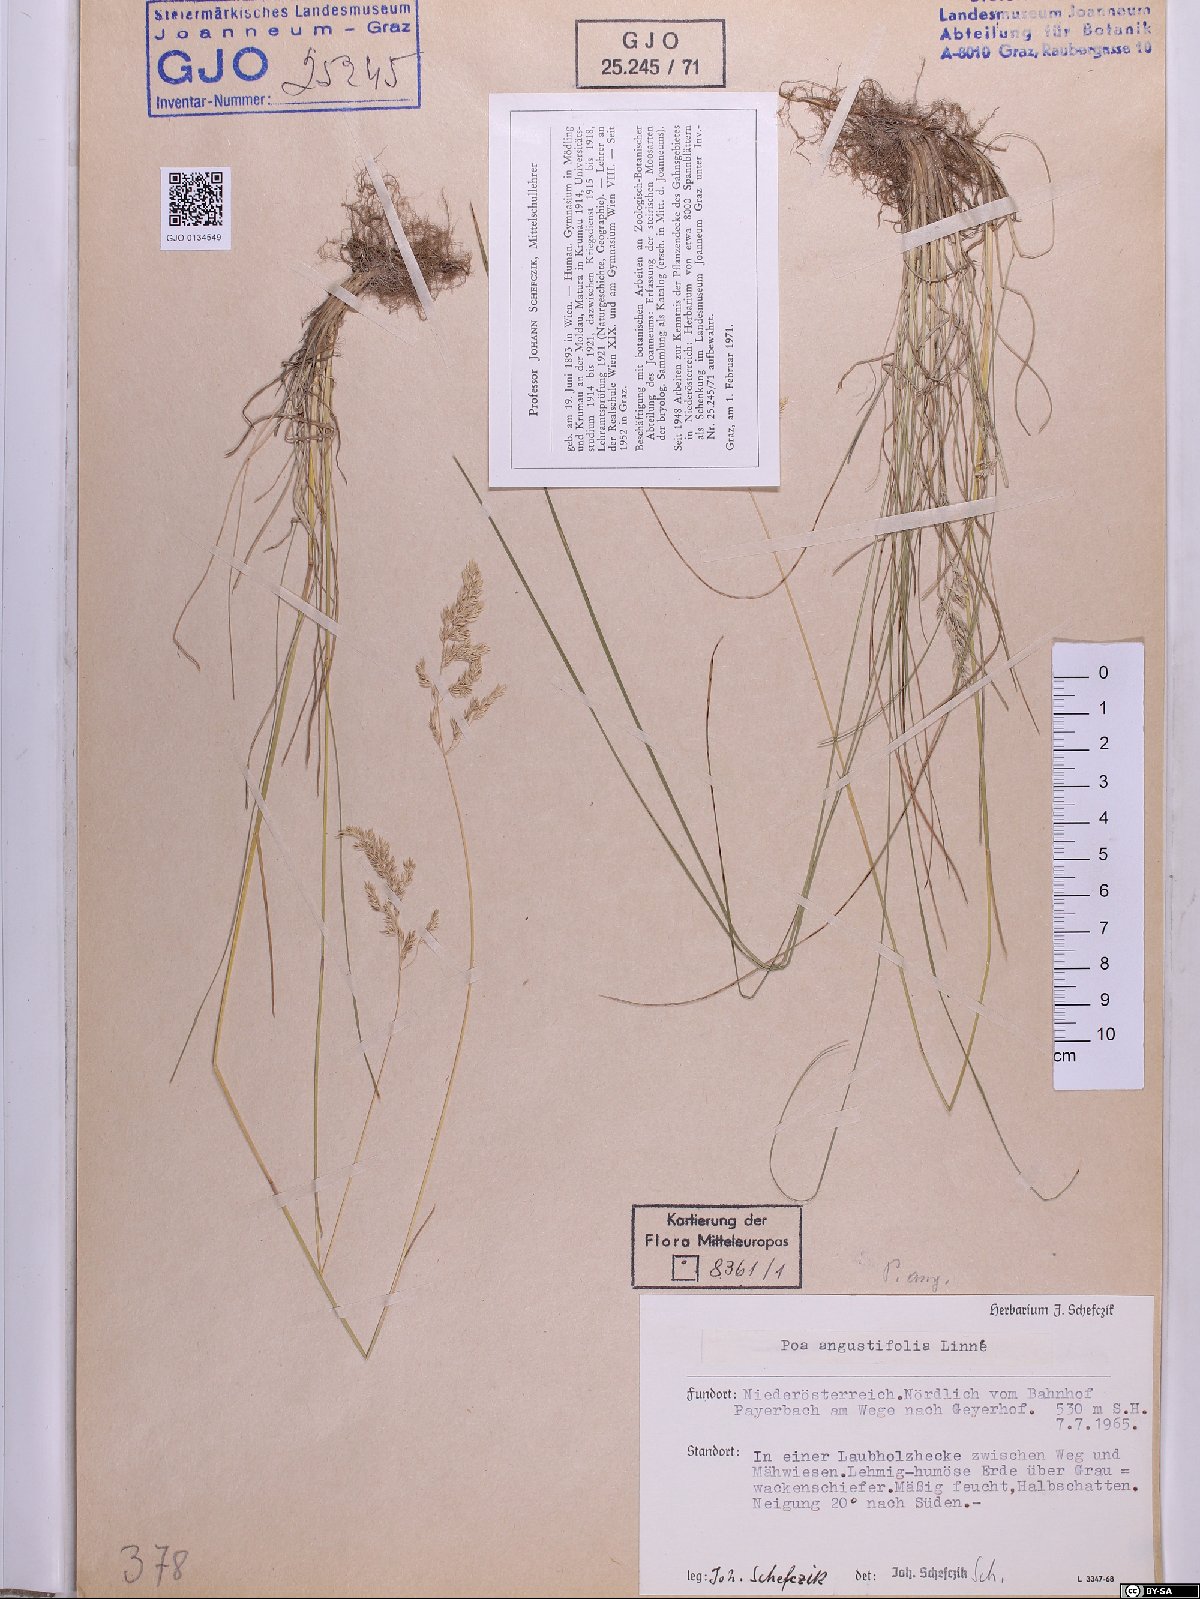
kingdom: Plantae
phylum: Tracheophyta
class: Liliopsida
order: Poales
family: Poaceae
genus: Poa
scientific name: Poa angustifolia
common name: Narrow-leaved meadow-grass
